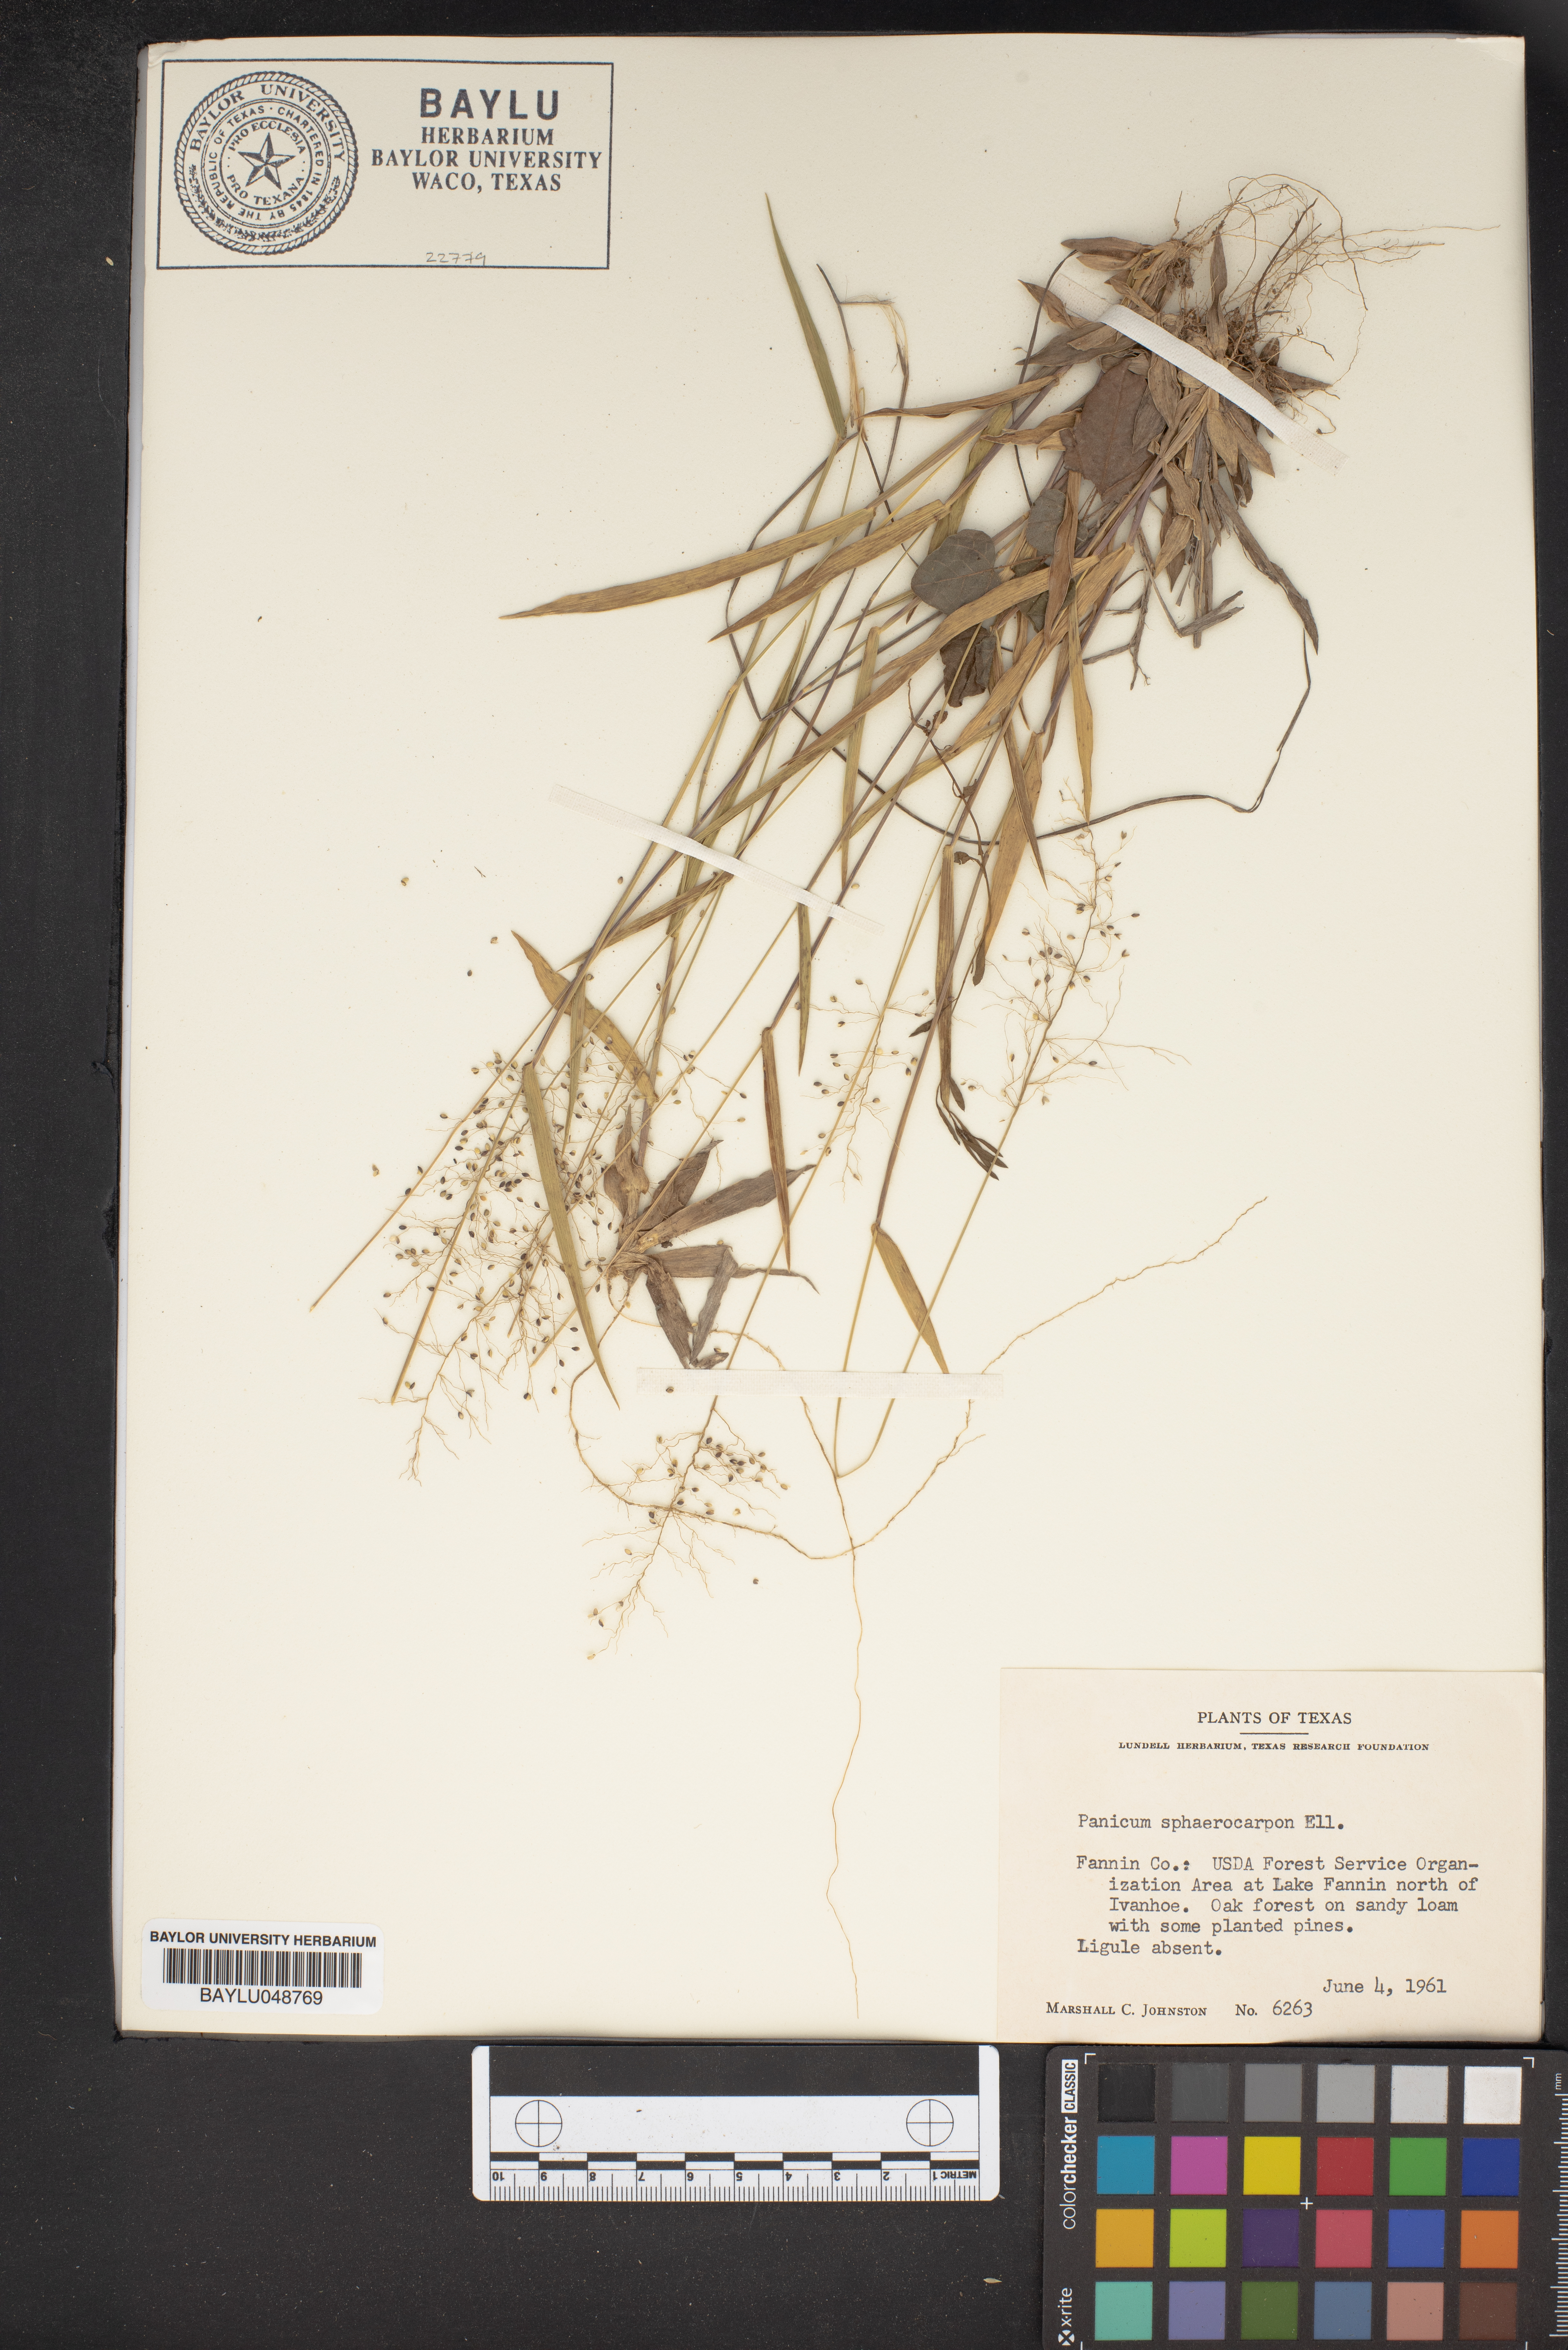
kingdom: Plantae
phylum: Tracheophyta
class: Liliopsida
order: Poales
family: Poaceae
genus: Dichanthelium
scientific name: Dichanthelium sphaerocarpon
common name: Round-fruited panicgrass
